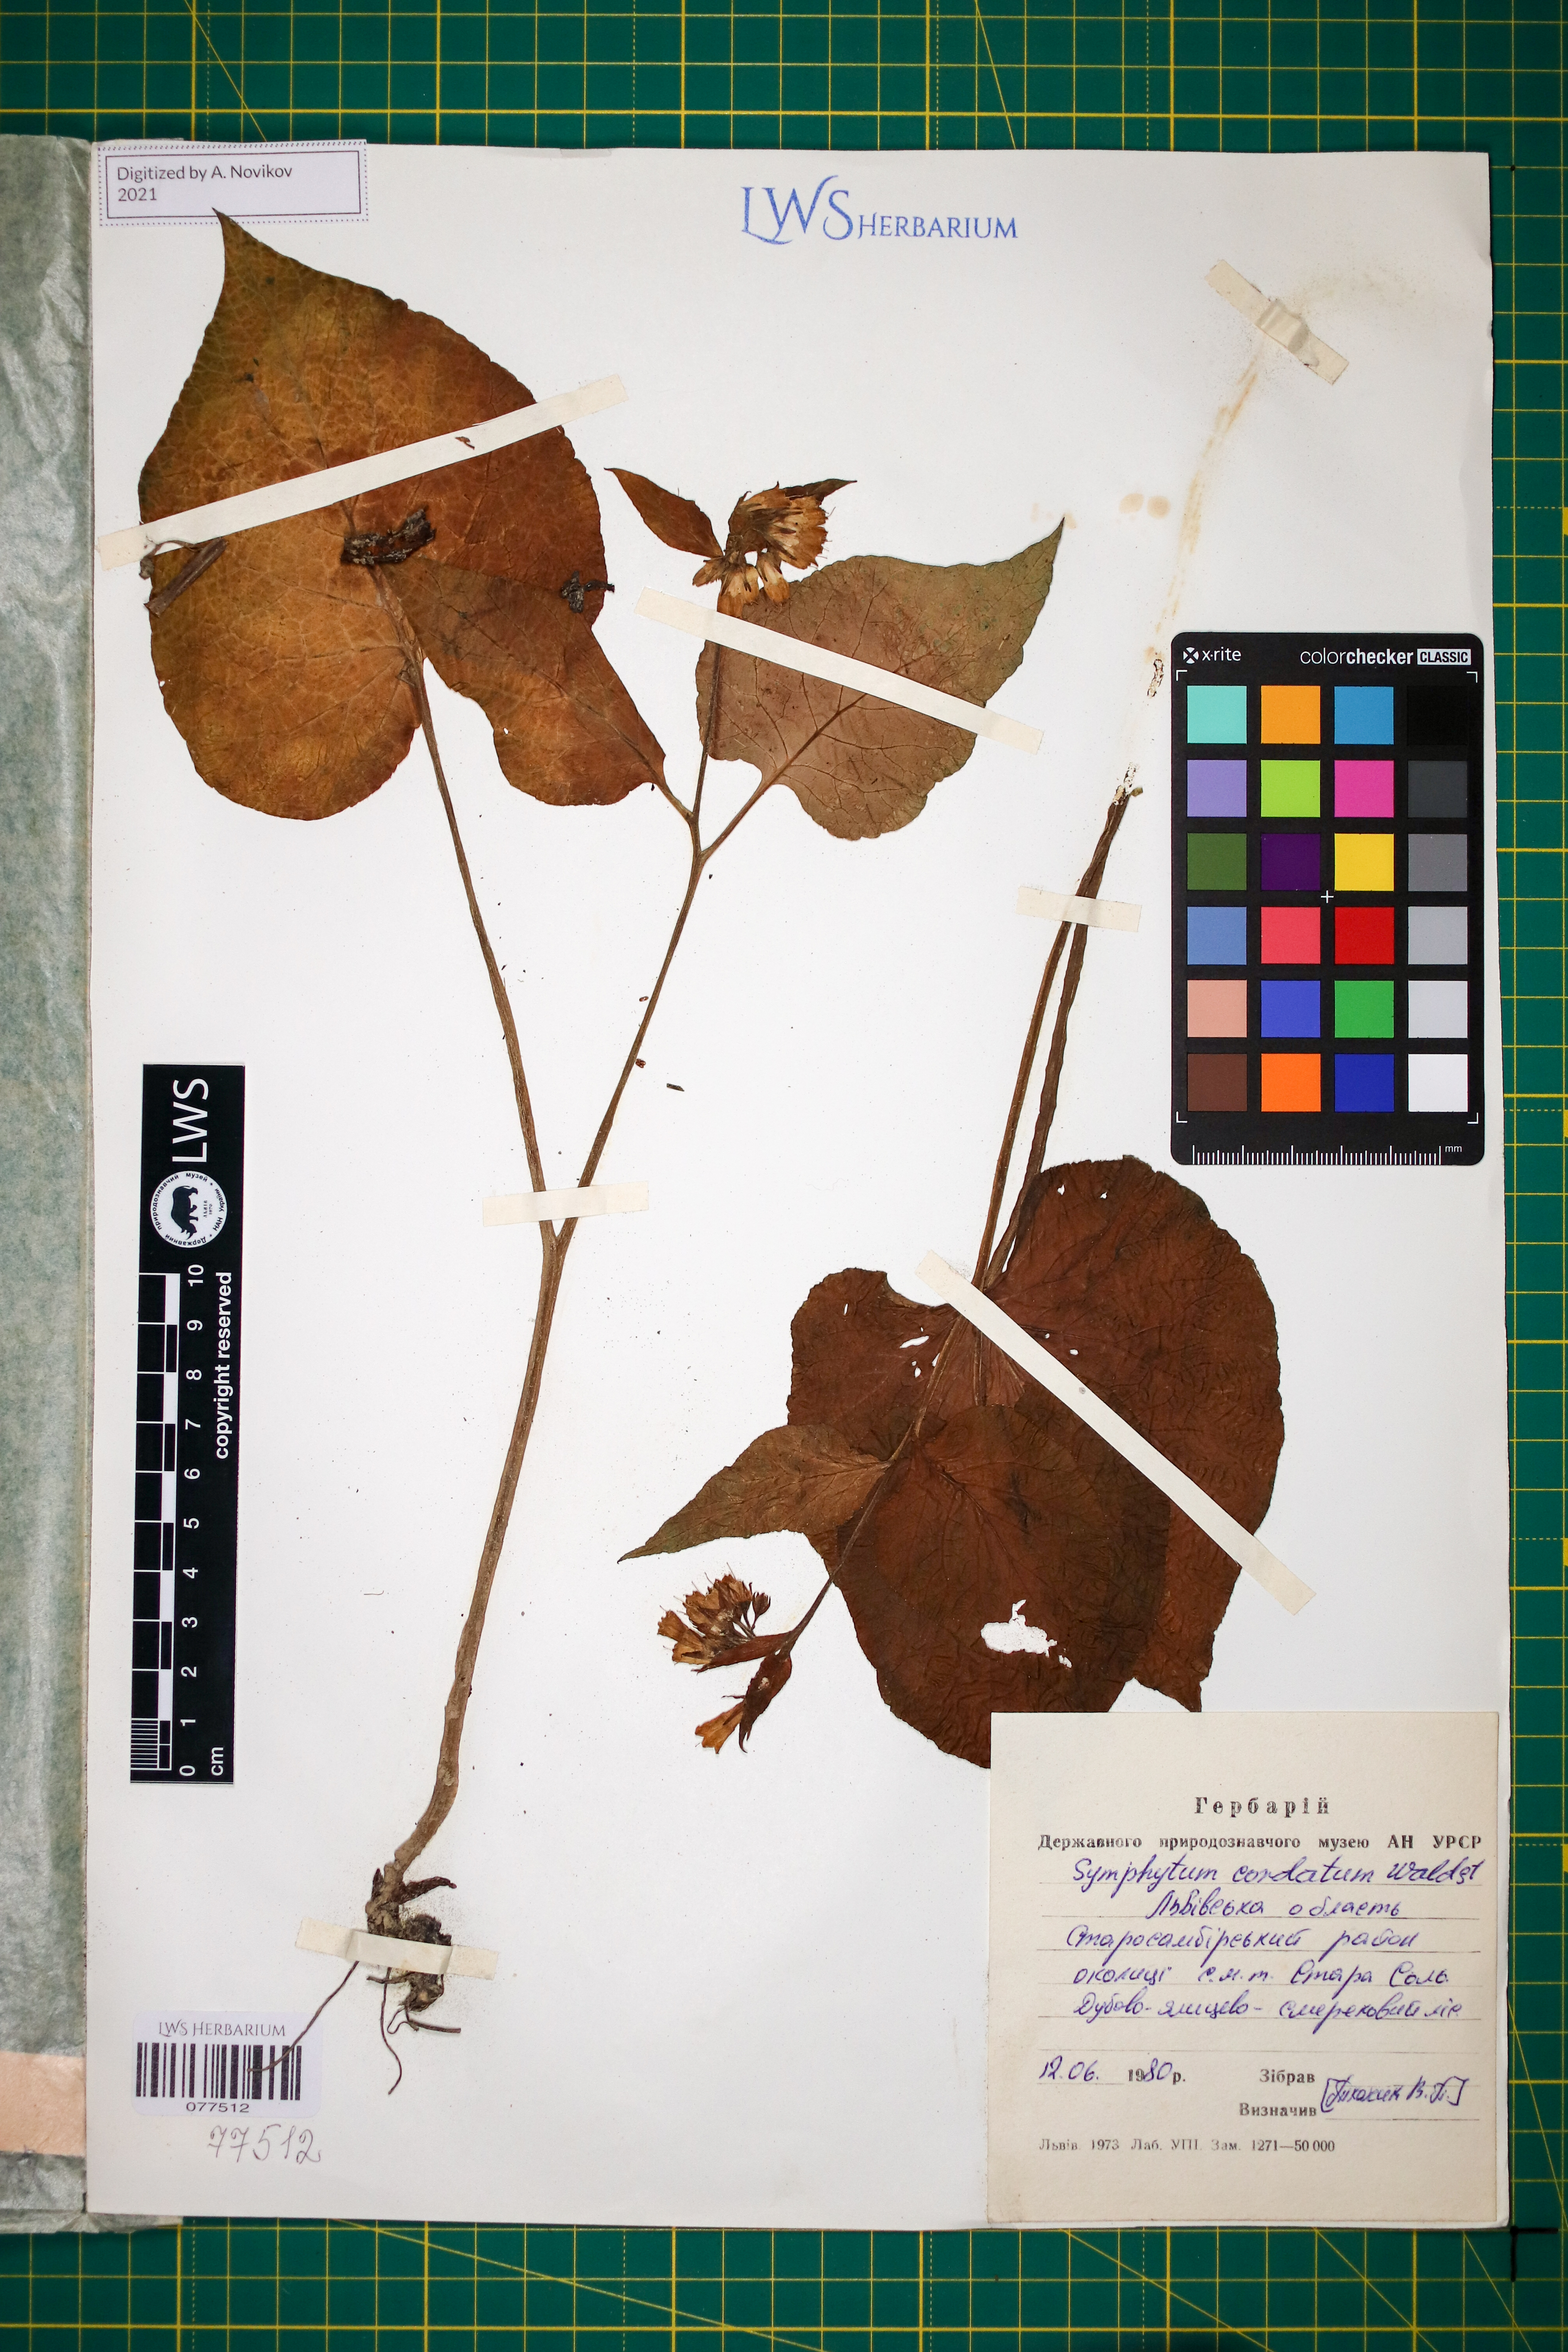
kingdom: Plantae
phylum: Tracheophyta
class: Magnoliopsida
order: Boraginales
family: Boraginaceae
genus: Symphytum
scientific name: Symphytum cordatum
